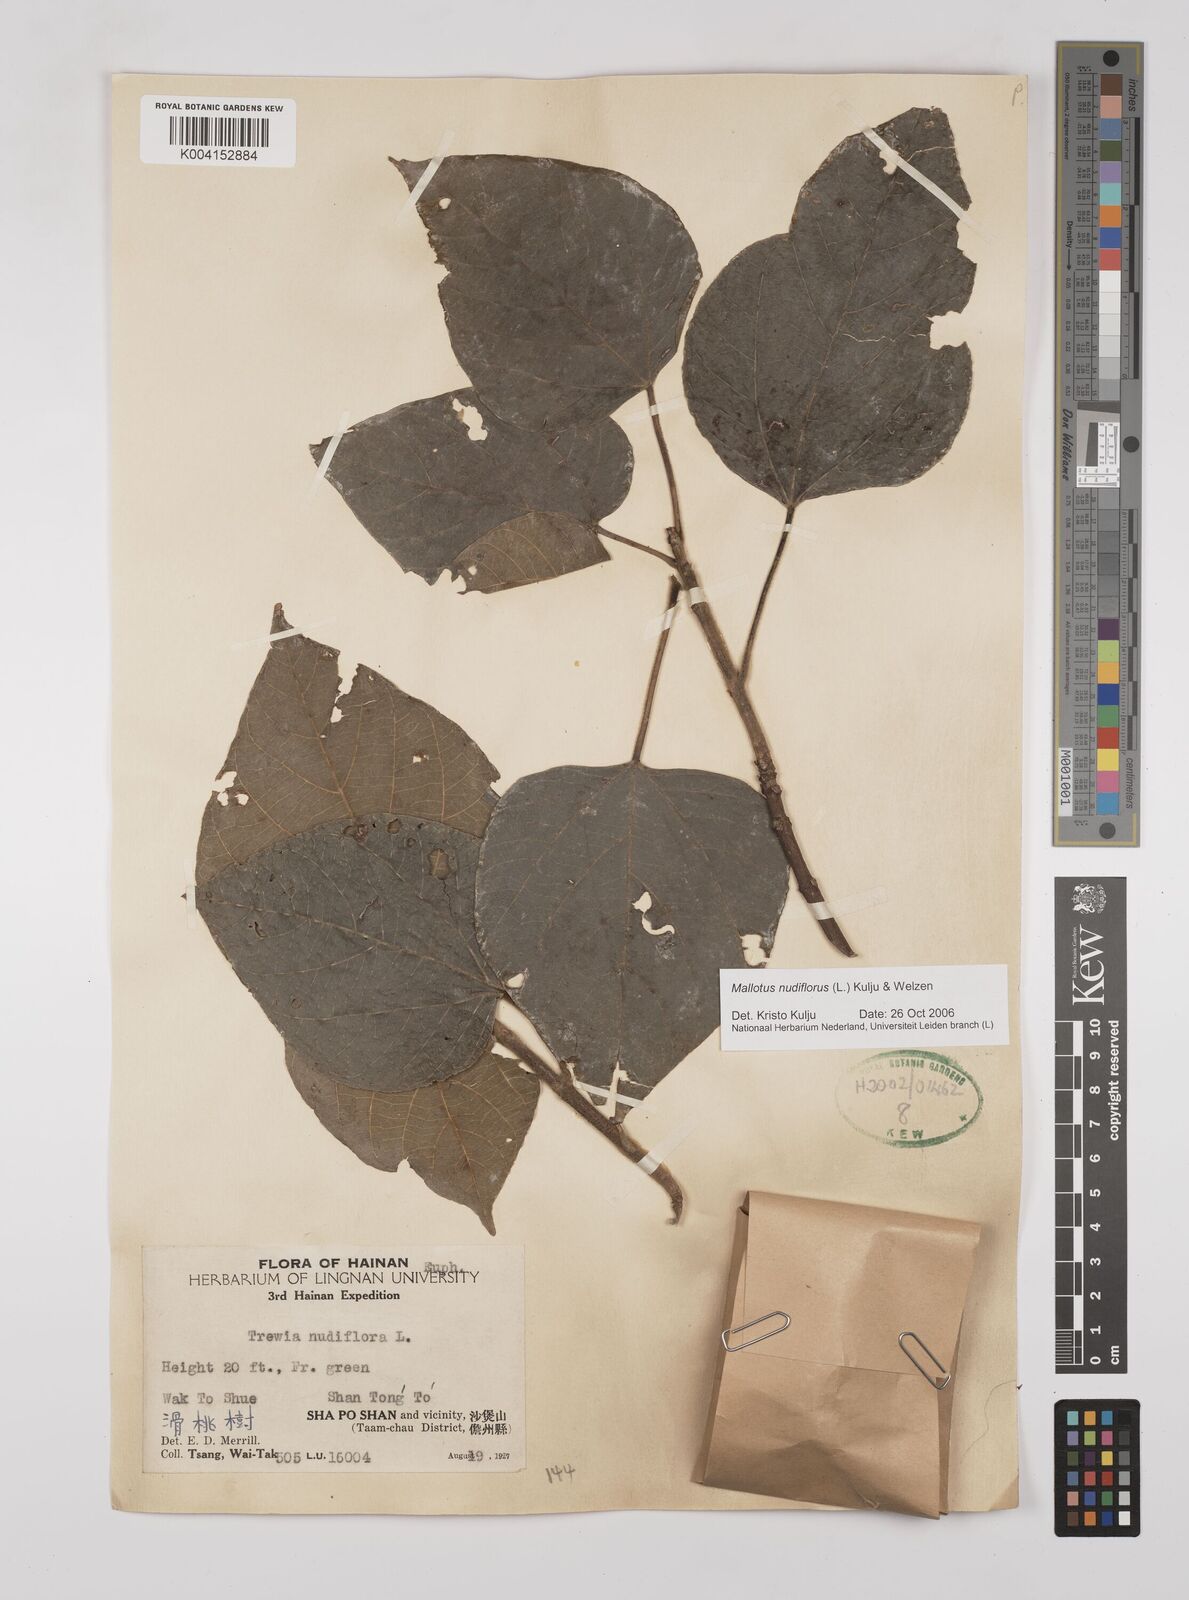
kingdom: Plantae
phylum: Tracheophyta
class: Magnoliopsida
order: Malpighiales
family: Euphorbiaceae
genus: Mallotus
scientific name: Mallotus nudiflorus
